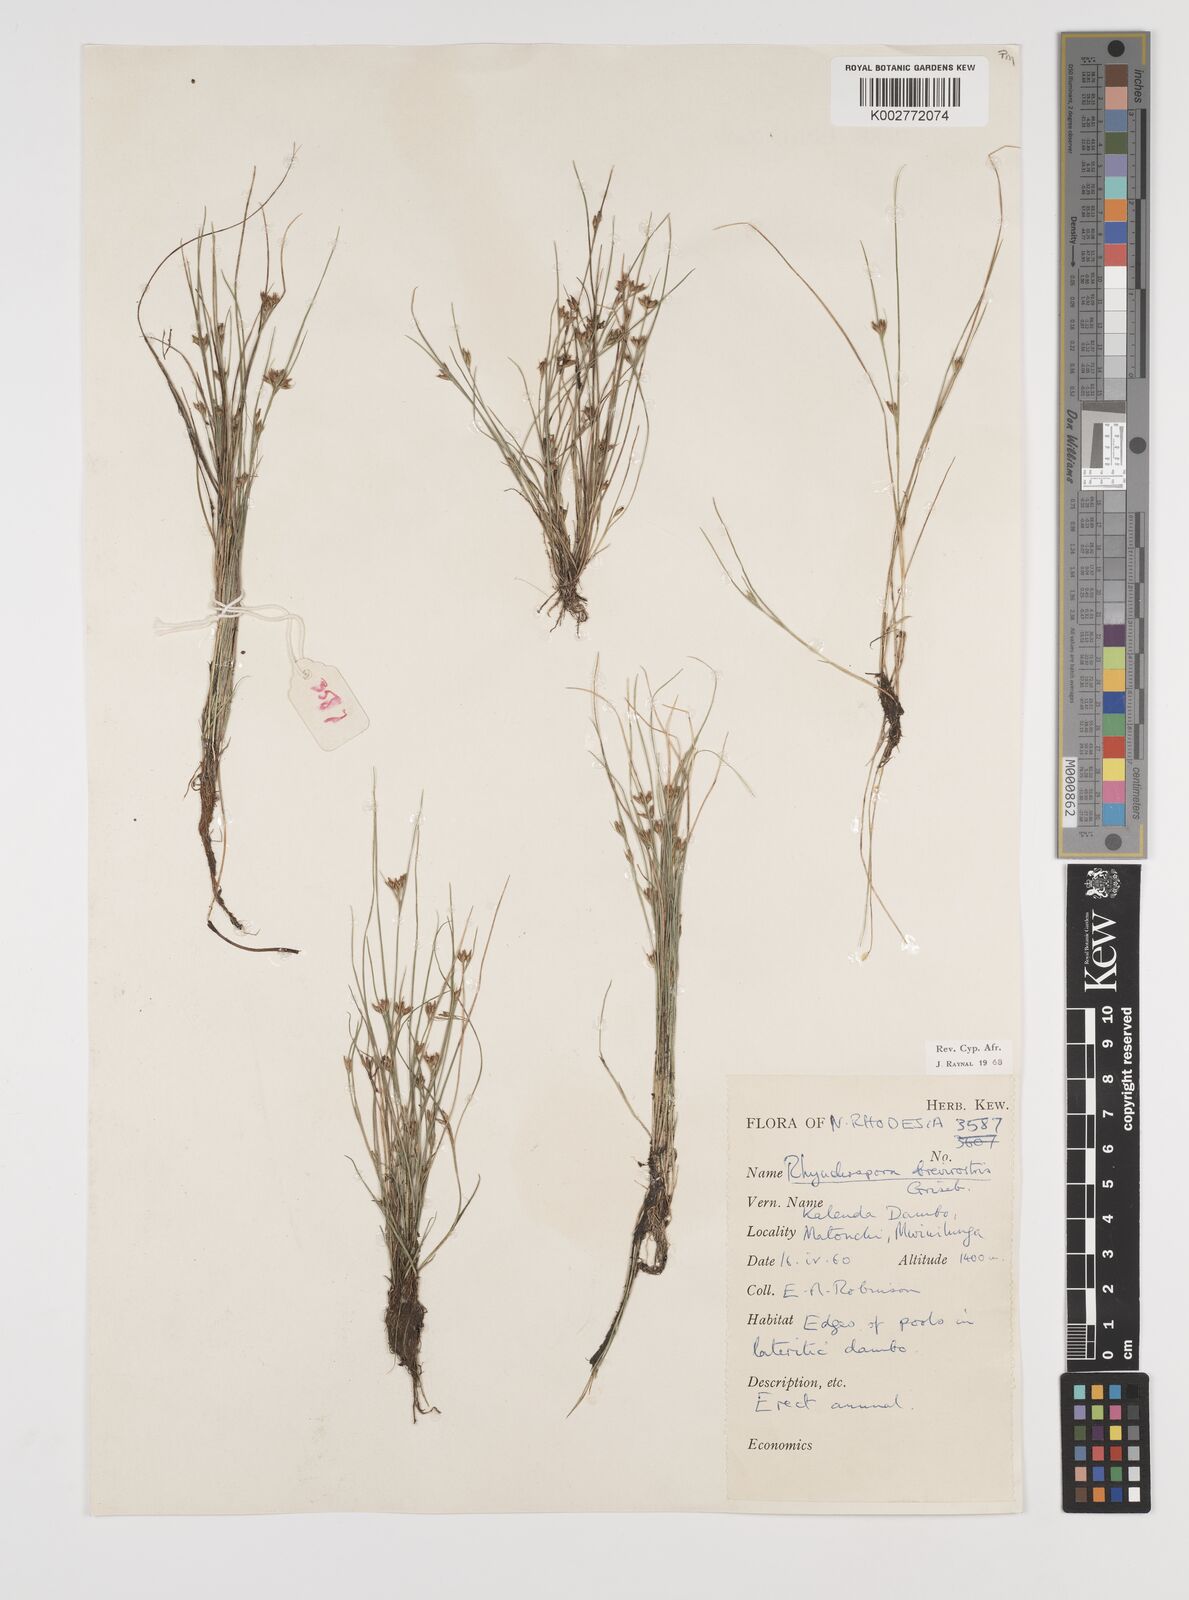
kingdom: Plantae
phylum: Tracheophyta
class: Liliopsida
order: Poales
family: Cyperaceae
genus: Rhynchospora
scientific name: Rhynchospora brevirostris
